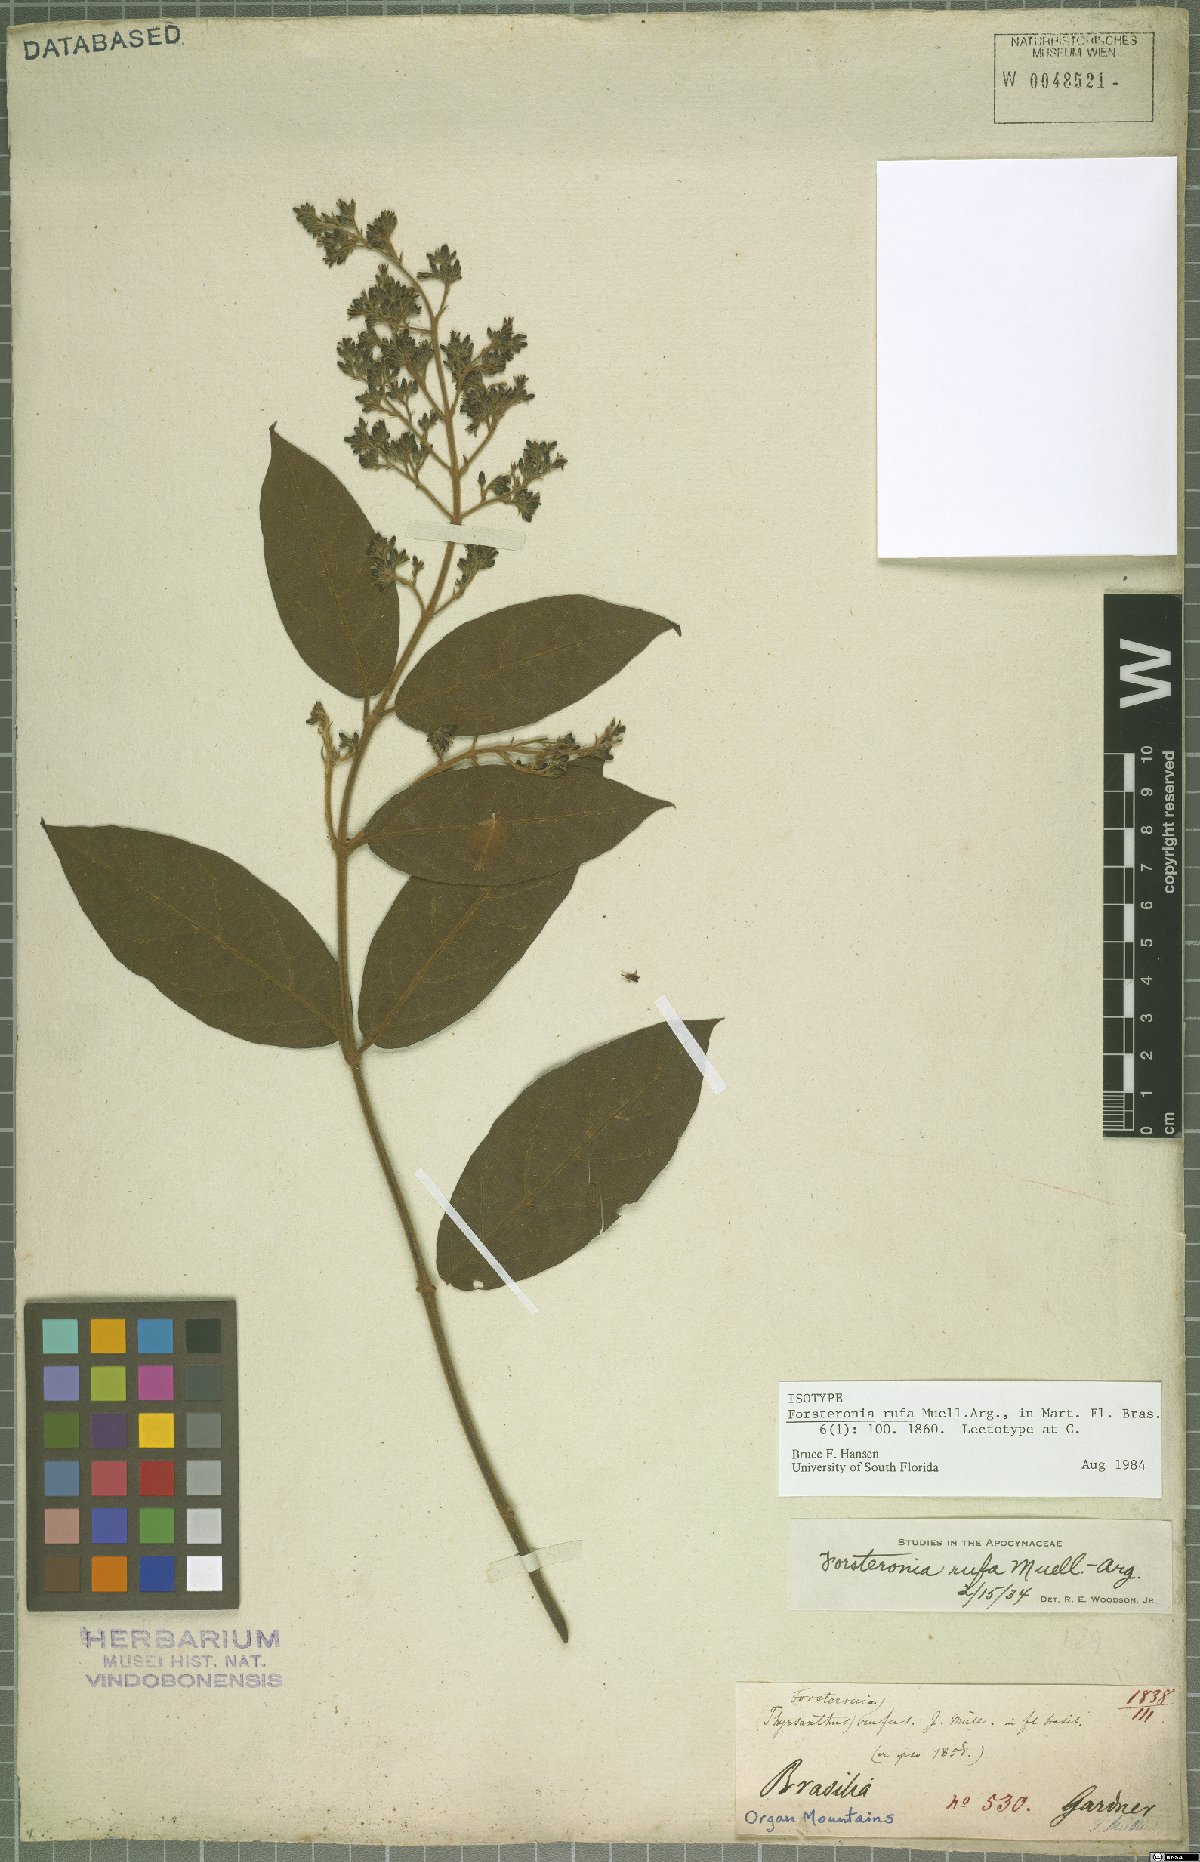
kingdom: Plantae
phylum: Tracheophyta
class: Magnoliopsida
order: Gentianales
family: Apocynaceae
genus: Forsteronia
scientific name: Forsteronia rufa
